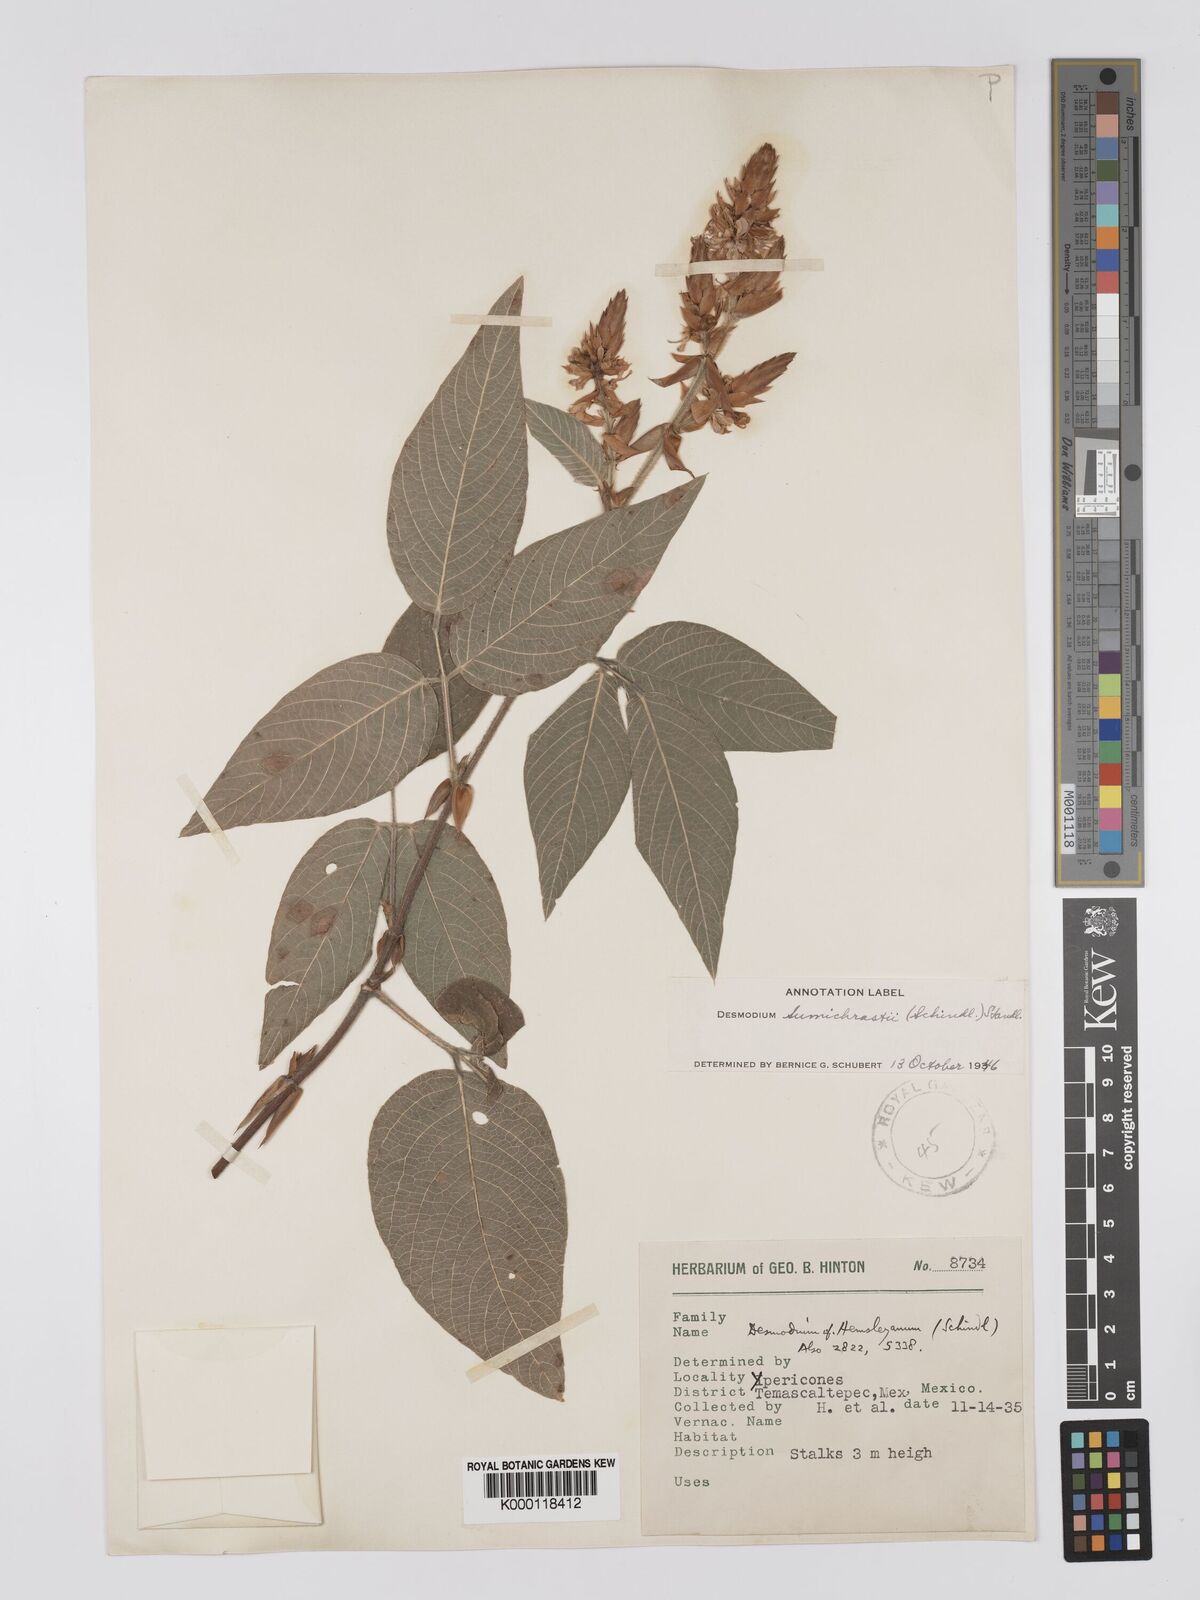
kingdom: Plantae
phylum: Tracheophyta
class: Magnoliopsida
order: Fabales
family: Fabaceae
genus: Desmodium
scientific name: Desmodium sumichrastii
